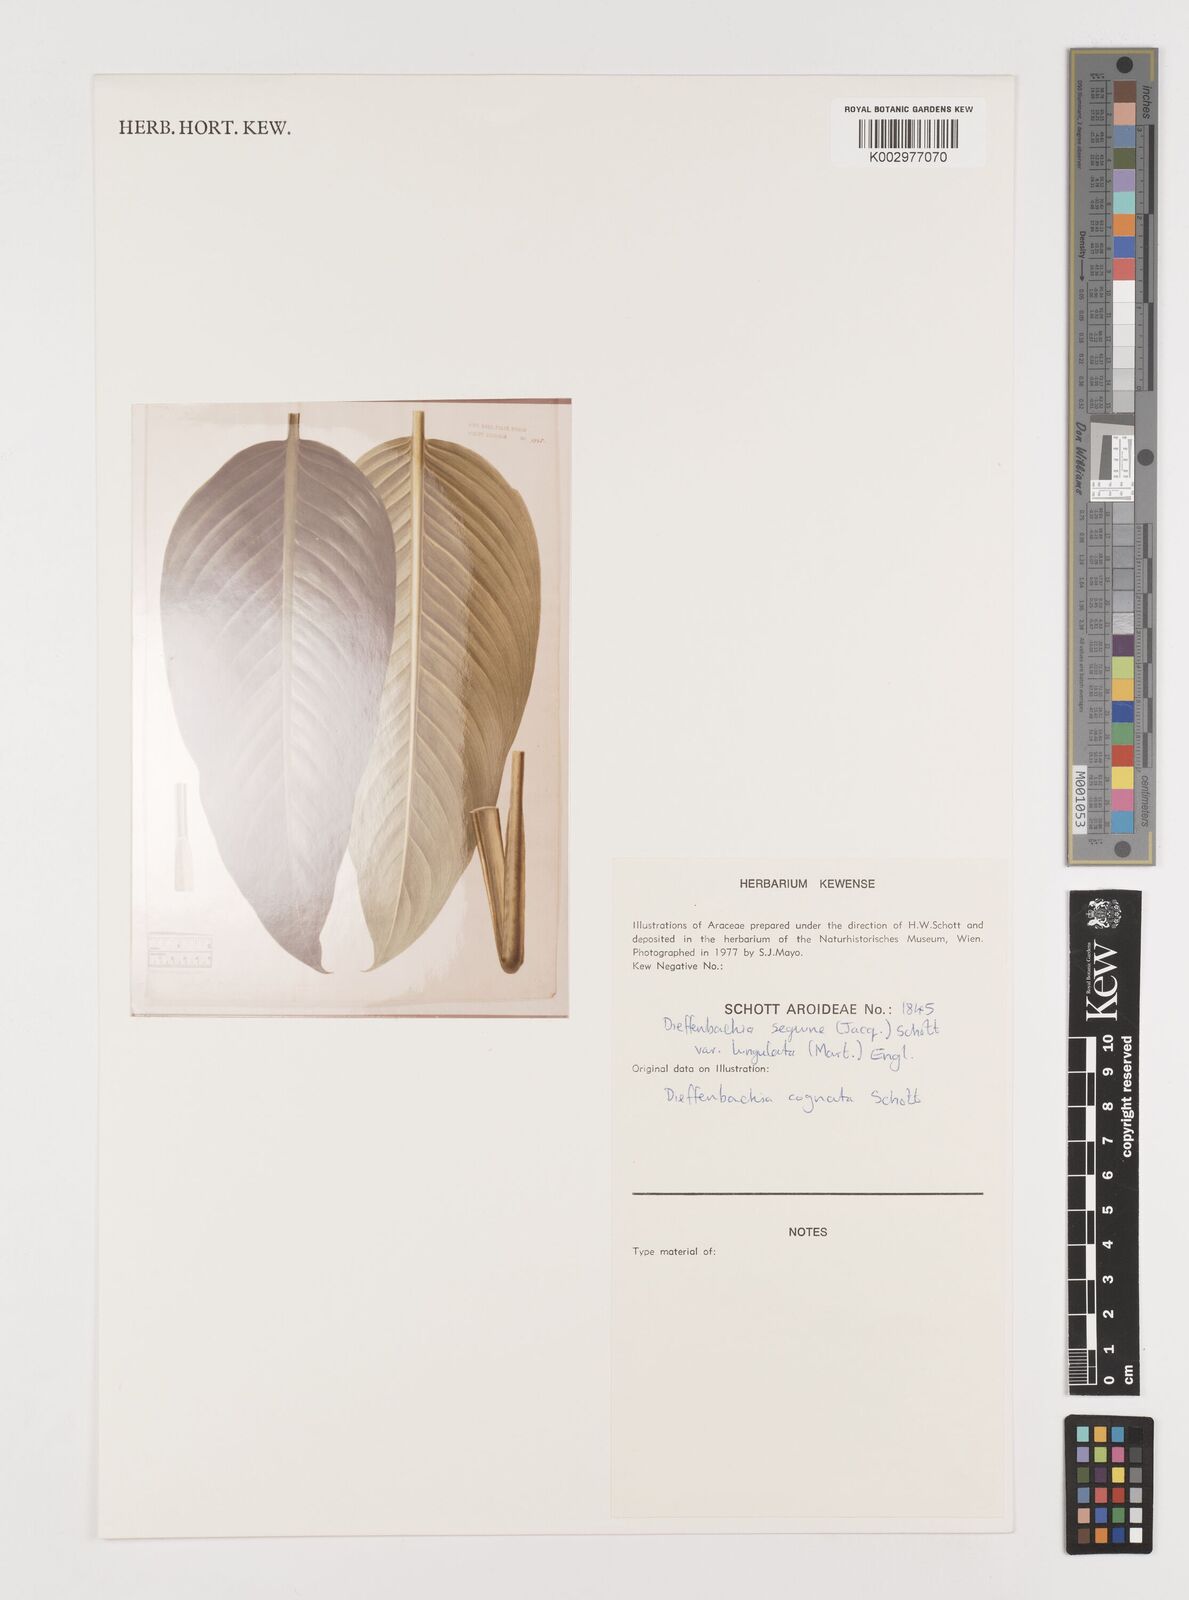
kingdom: Plantae
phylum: Tracheophyta
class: Liliopsida
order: Alismatales
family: Araceae
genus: Dieffenbachia
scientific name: Dieffenbachia seguine
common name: Dumbcane
